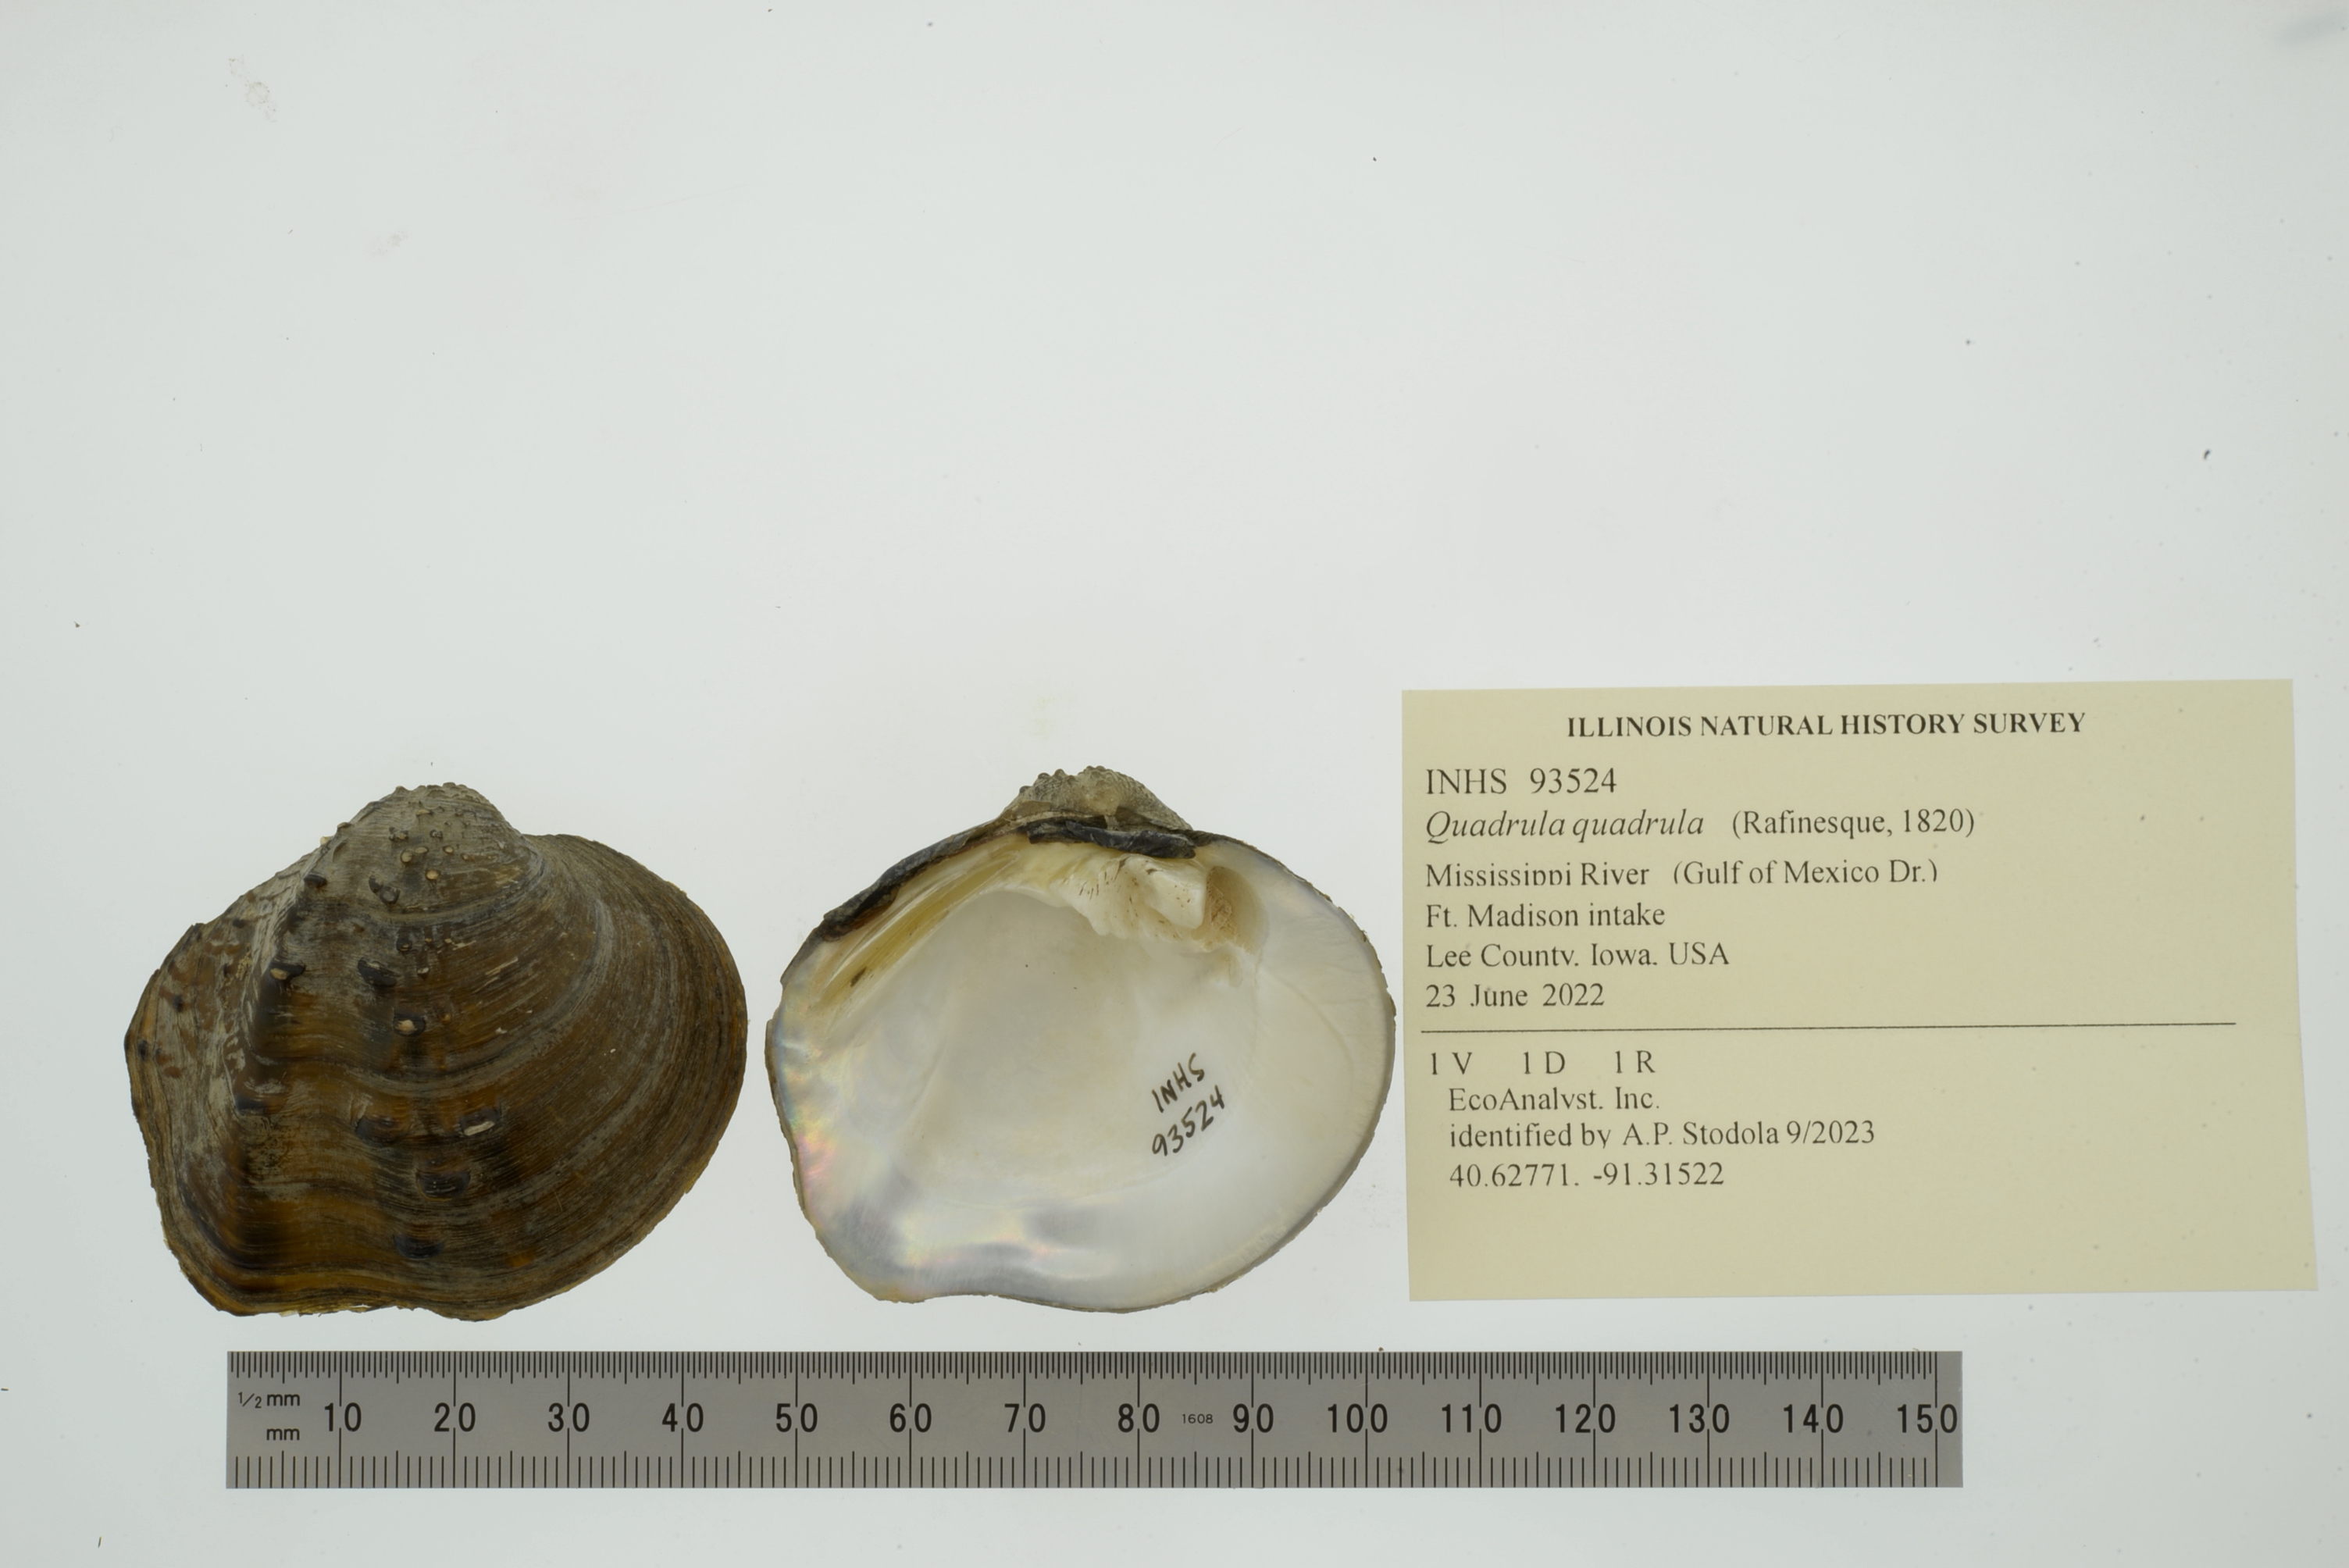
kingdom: Animalia
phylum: Mollusca
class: Bivalvia
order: Unionida
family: Unionidae
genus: Quadrula
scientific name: Quadrula quadrula
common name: Mapleleaf
